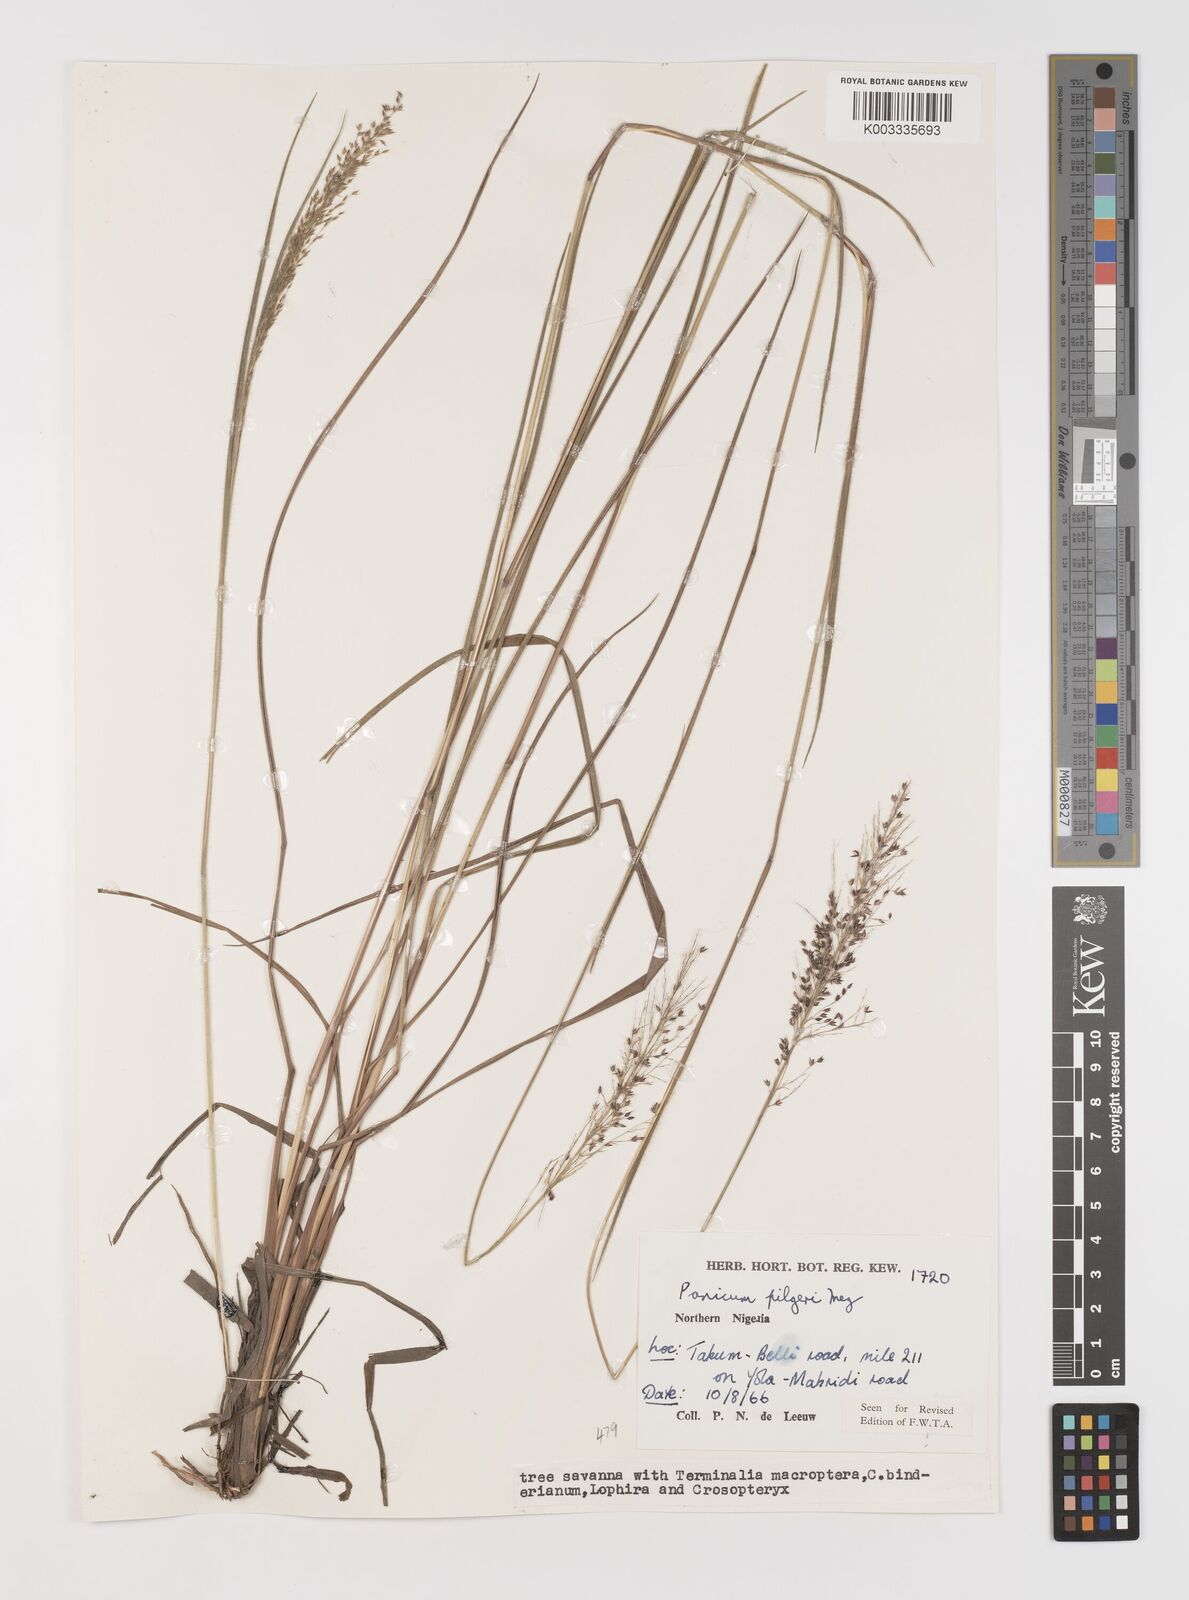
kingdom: Plantae
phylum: Tracheophyta
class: Liliopsida
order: Poales
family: Poaceae
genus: Panicum
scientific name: Panicum
